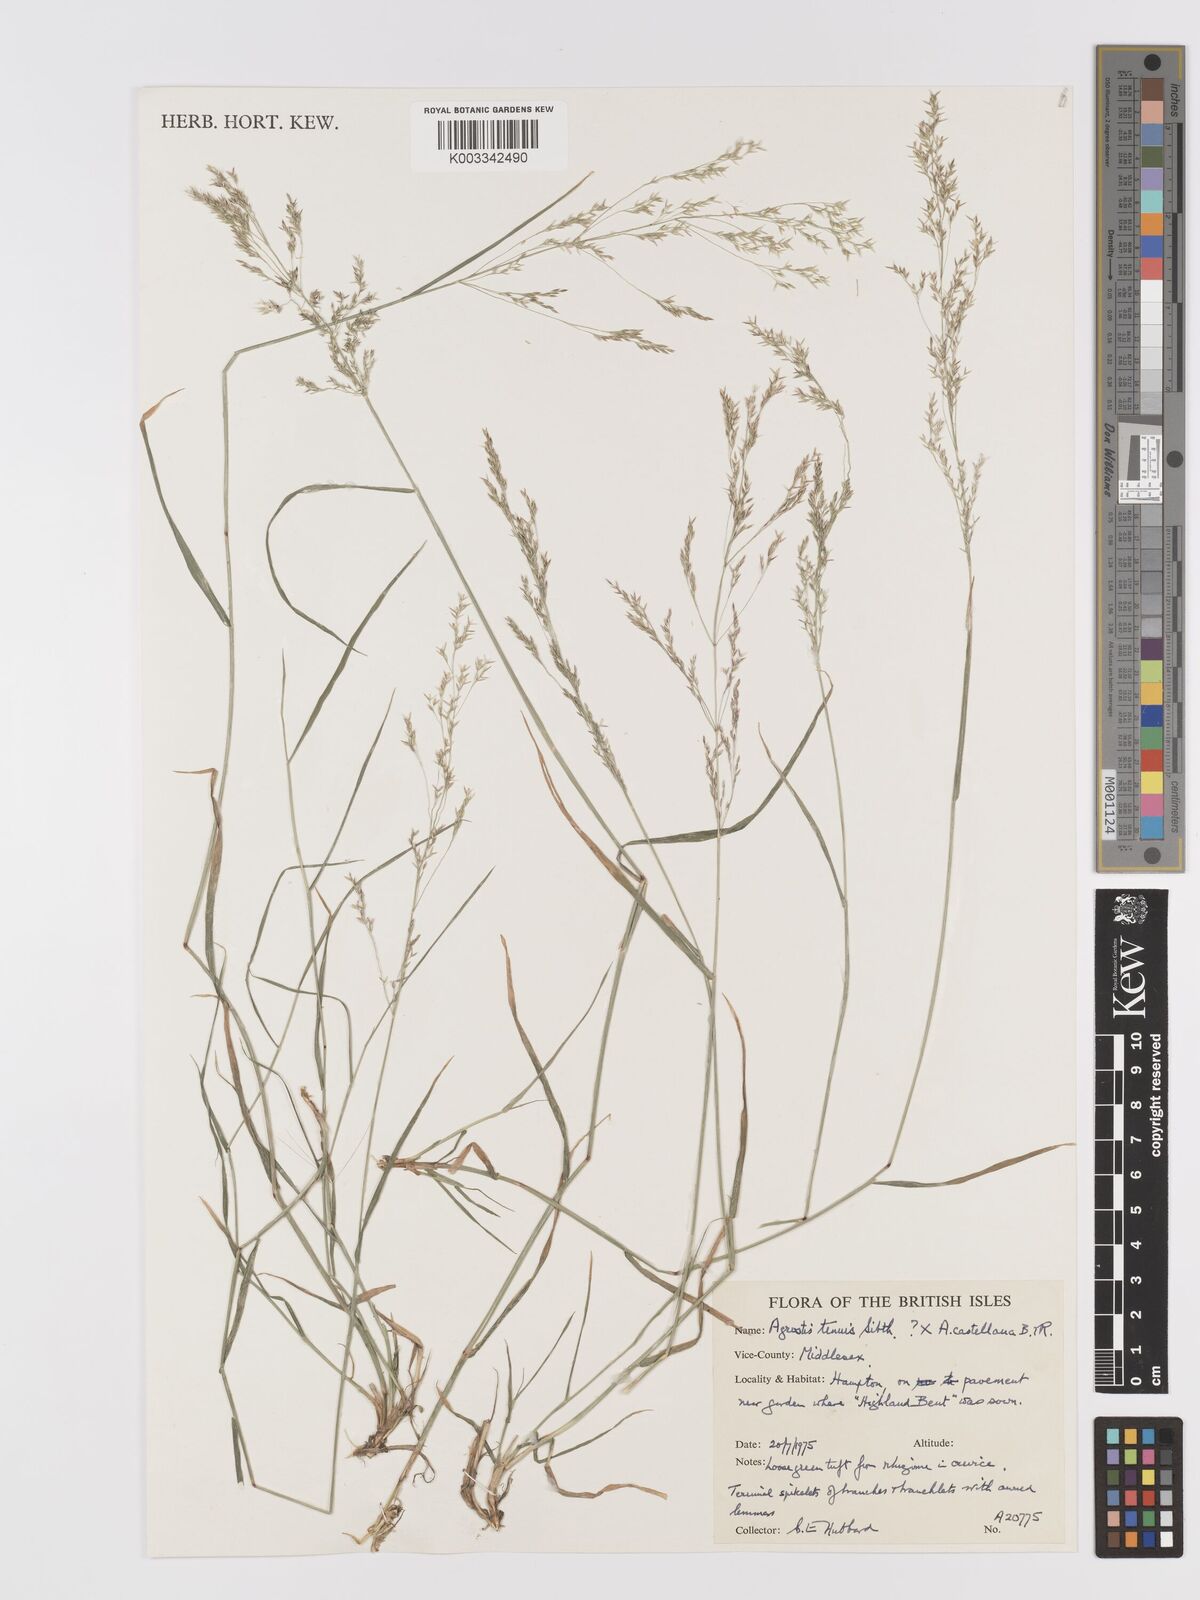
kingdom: Plantae
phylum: Tracheophyta
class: Liliopsida
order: Poales
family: Poaceae
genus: Agrostis
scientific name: Agrostis capillaris
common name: Colonial bentgrass
